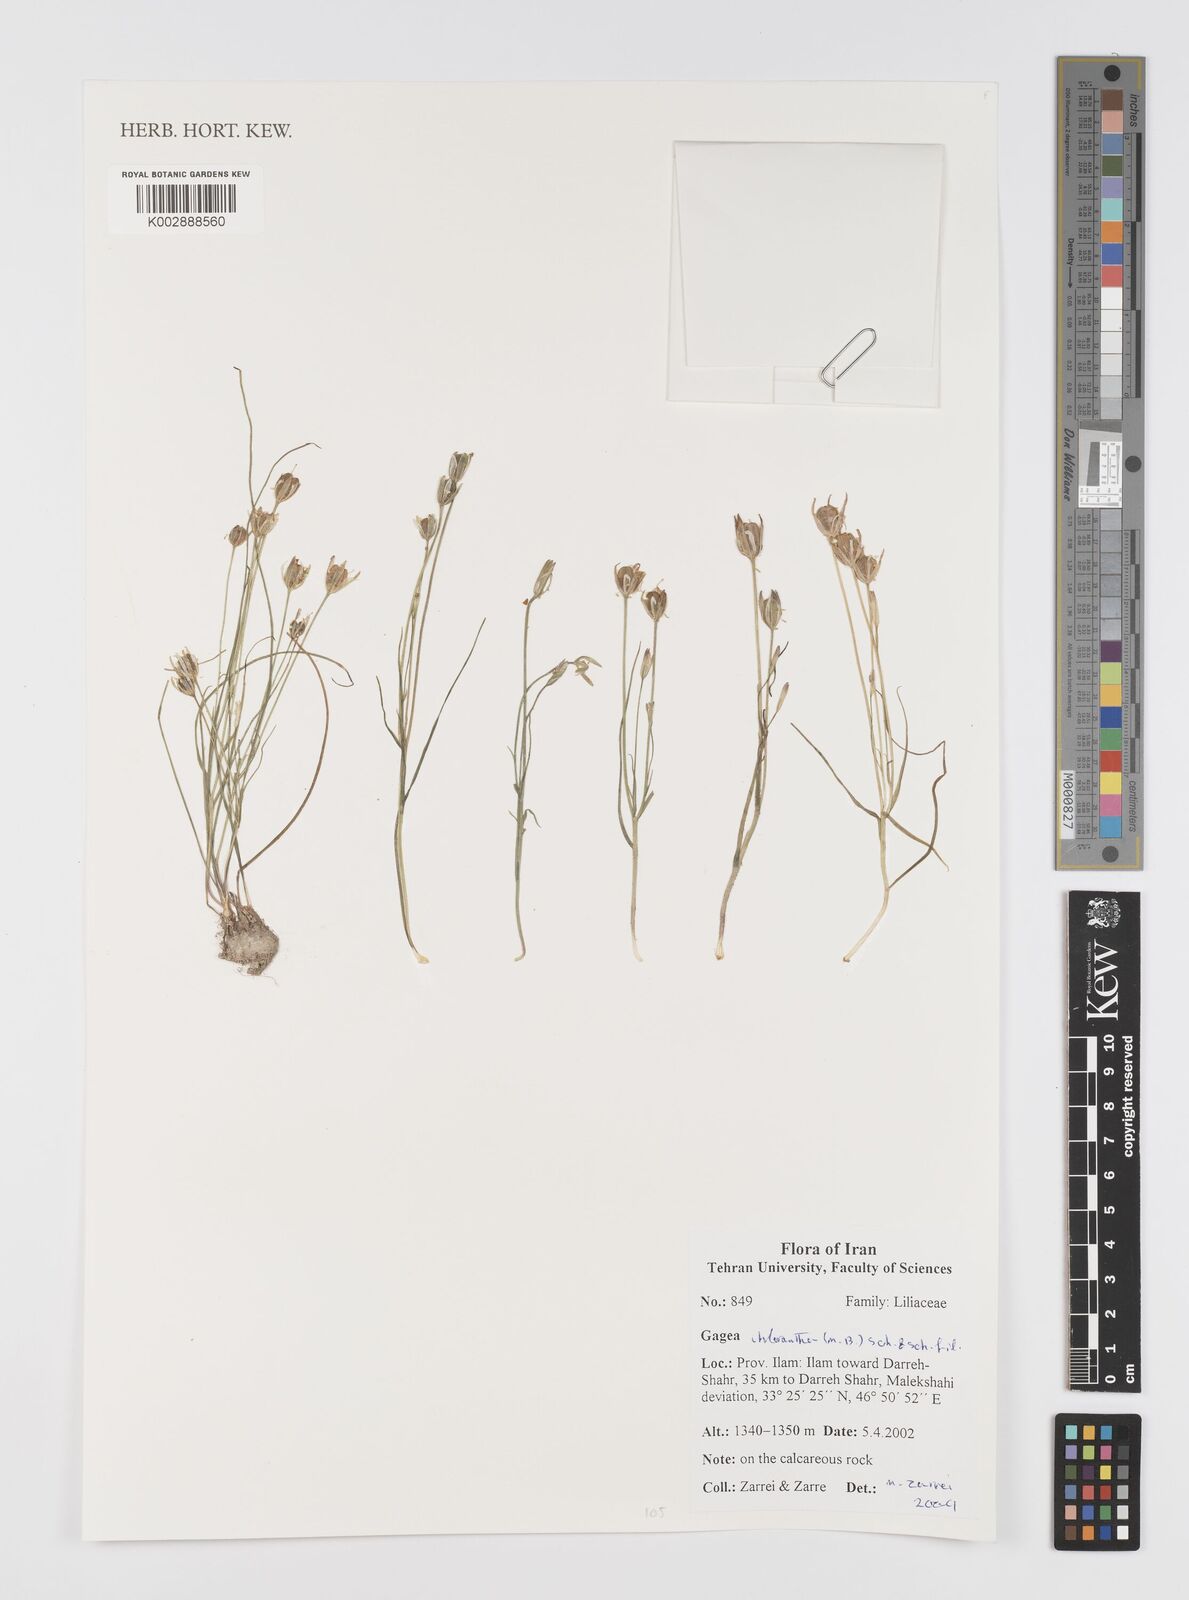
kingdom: Plantae
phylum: Tracheophyta
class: Liliopsida
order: Liliales
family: Liliaceae
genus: Gagea
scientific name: Gagea chlorantha
